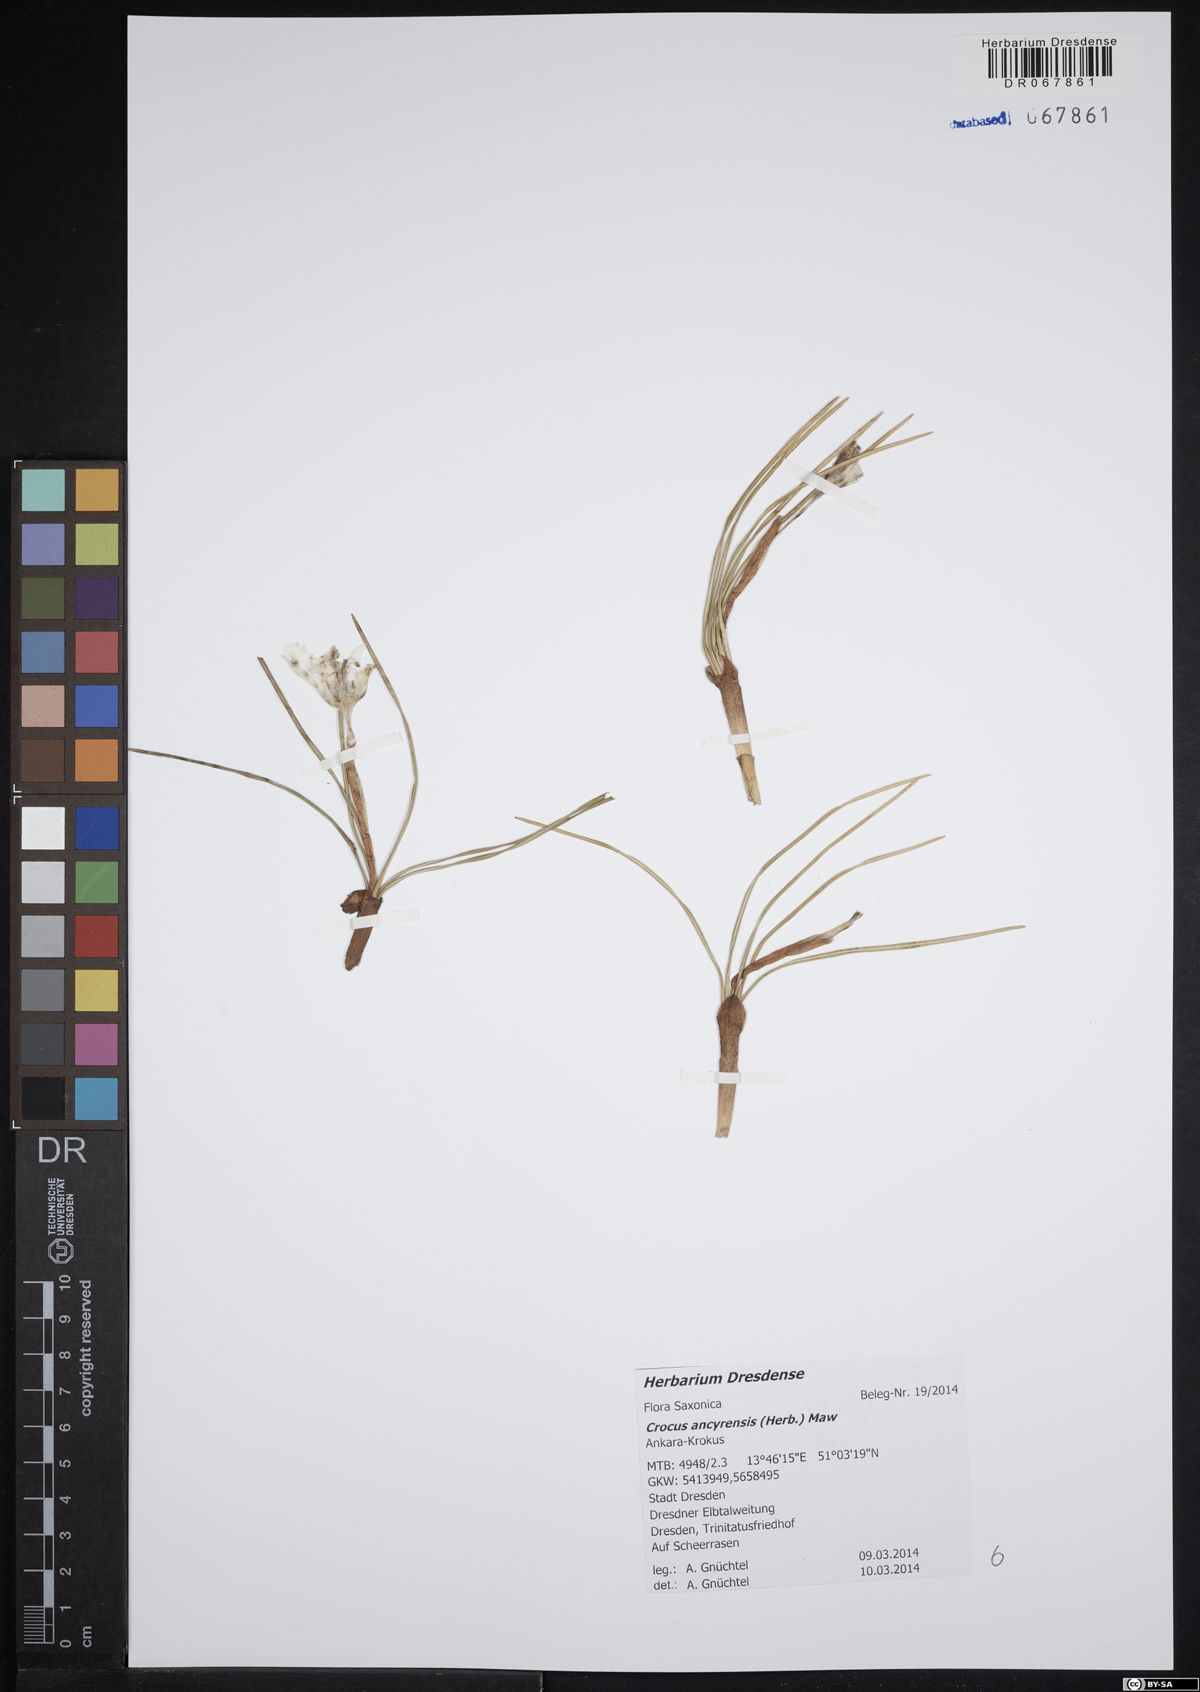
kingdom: Plantae
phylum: Tracheophyta
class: Liliopsida
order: Asparagales
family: Iridaceae
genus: Crocus
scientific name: Crocus ancyrensis
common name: Ankara crocus
